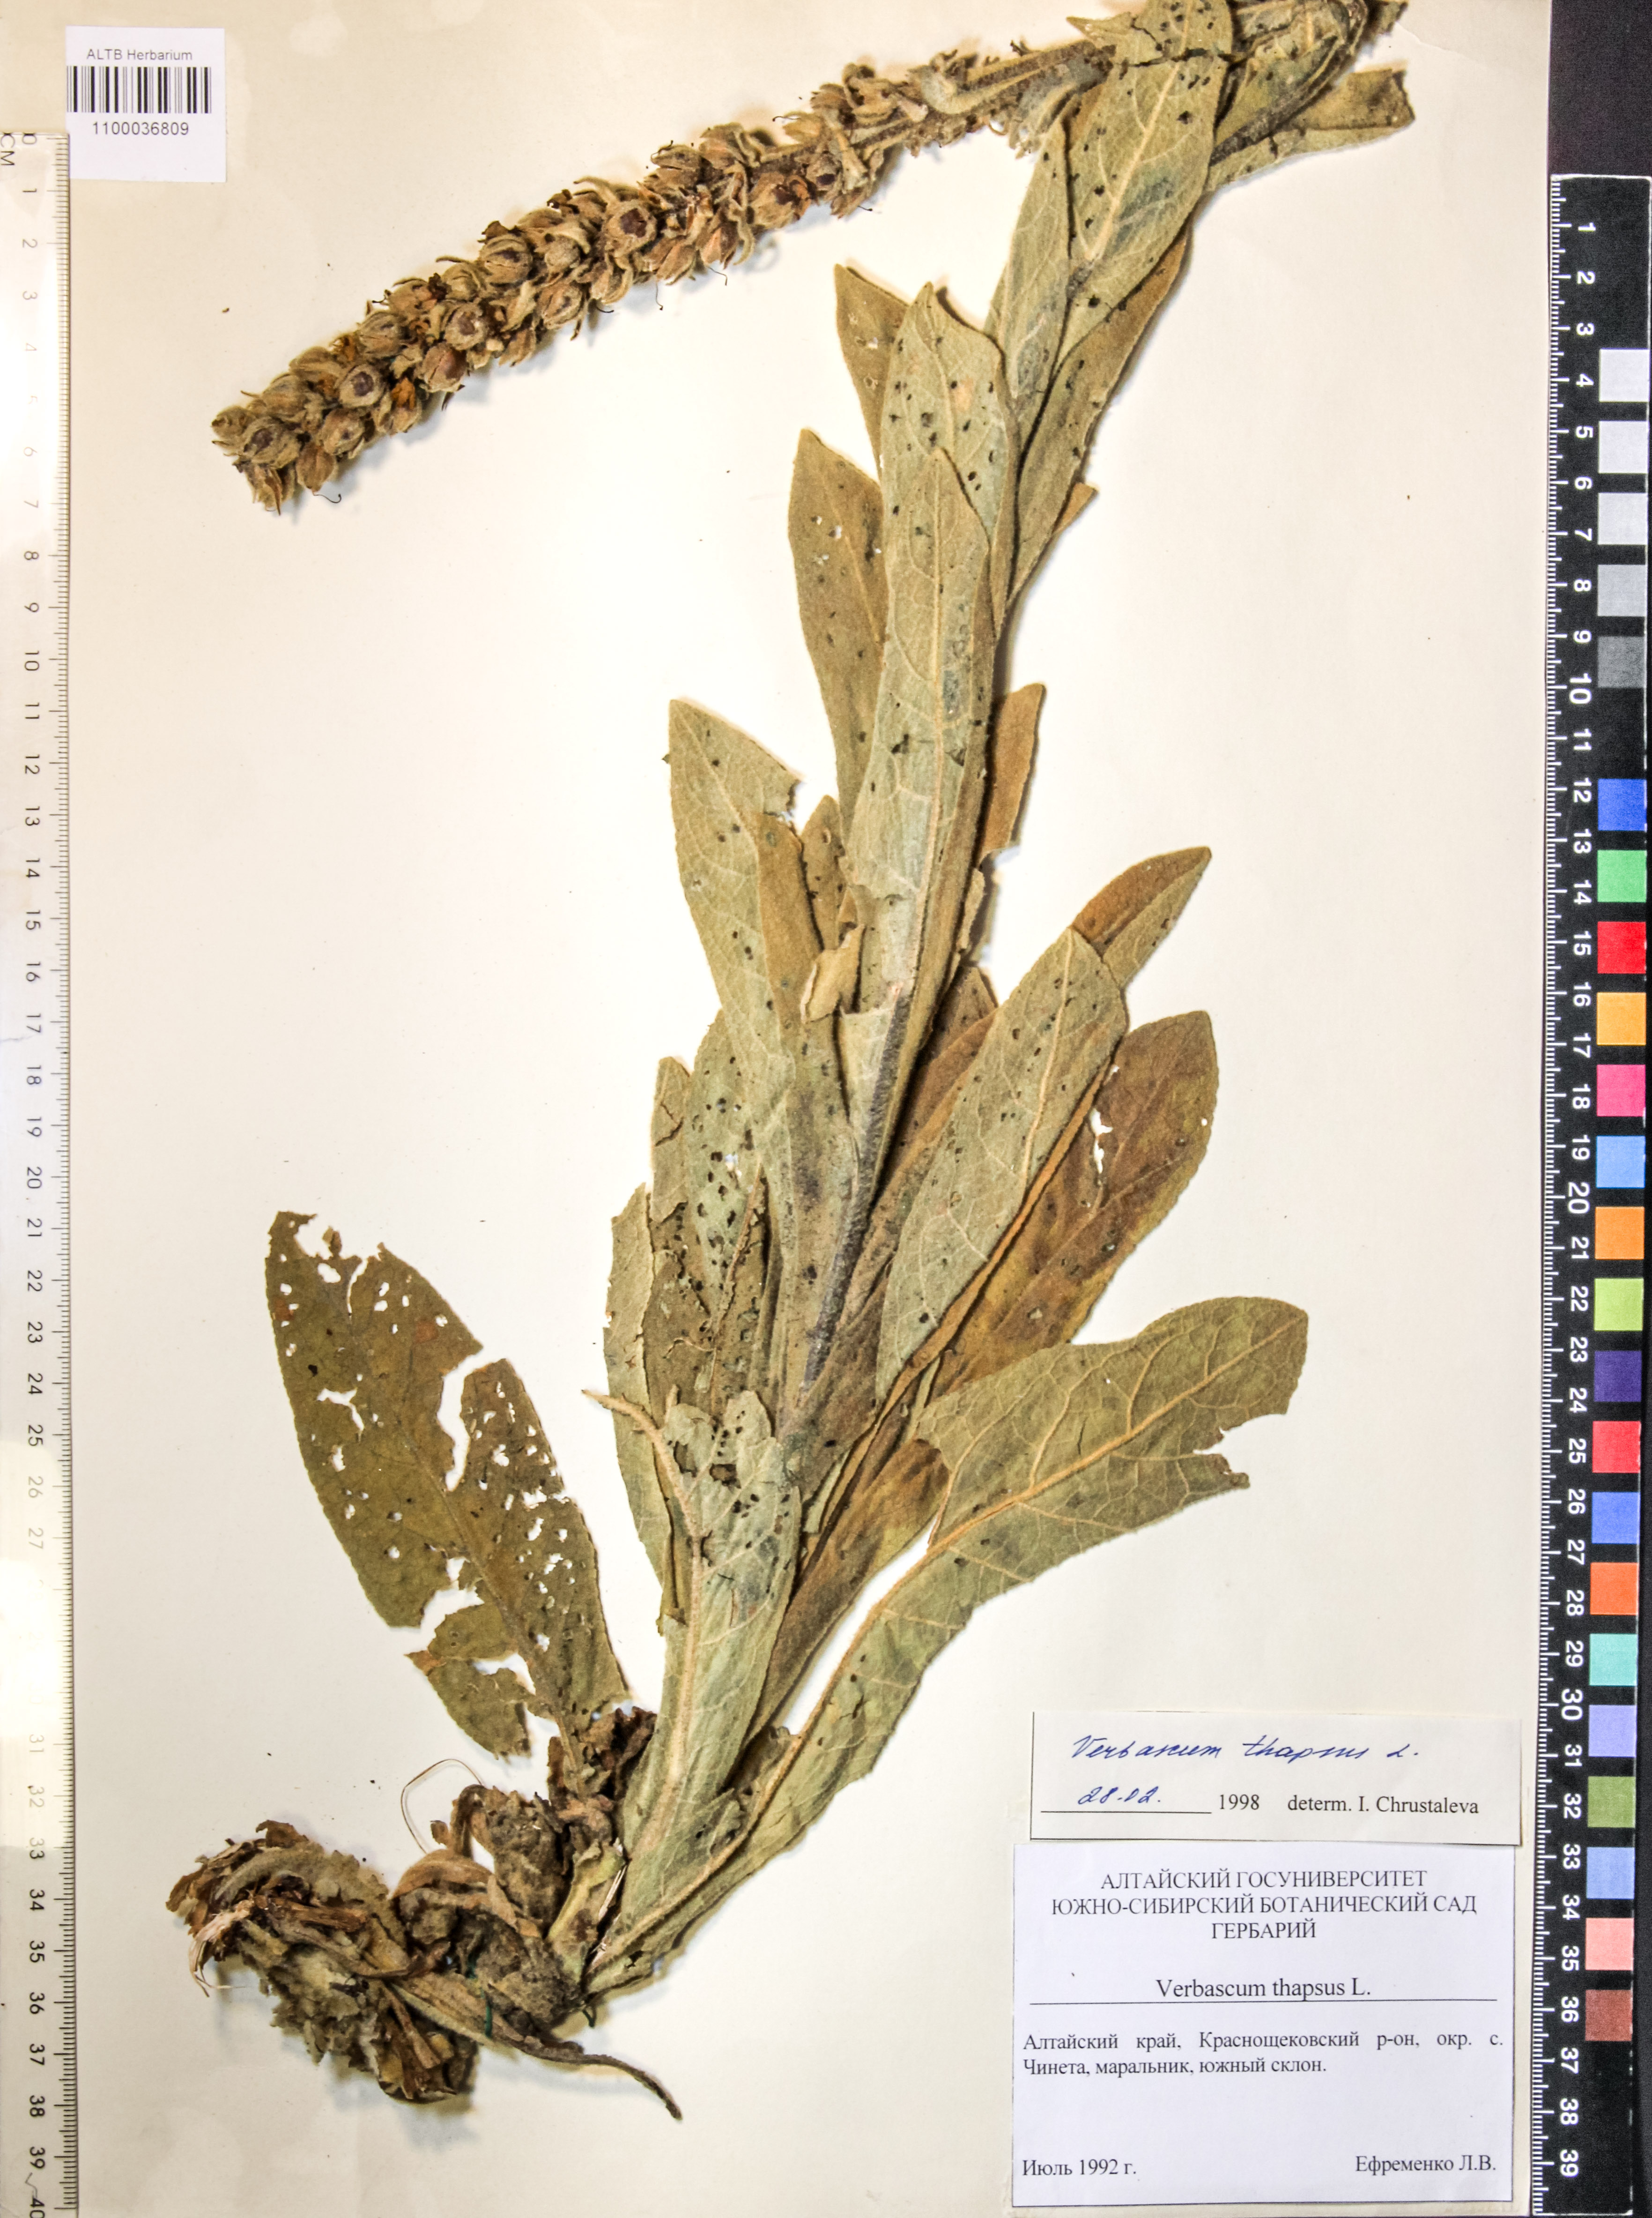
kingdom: Plantae
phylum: Tracheophyta
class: Magnoliopsida
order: Lamiales
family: Scrophulariaceae
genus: Verbascum
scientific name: Verbascum thapsus
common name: Common mullein
